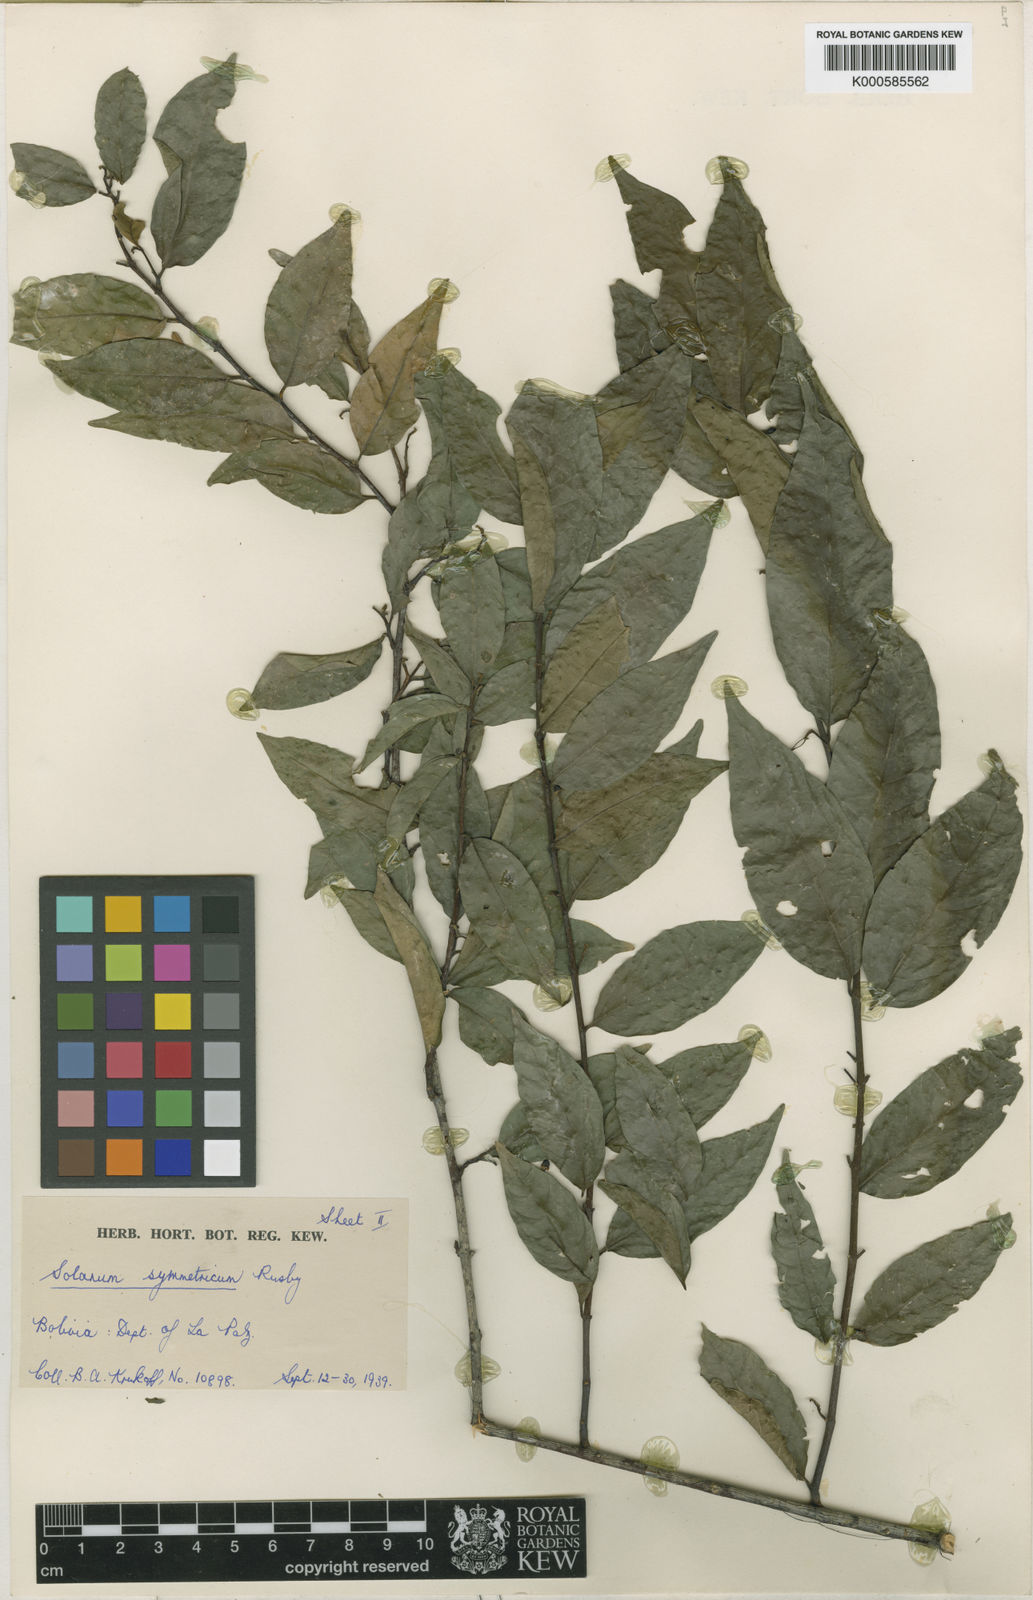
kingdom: Plantae
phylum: Tracheophyta
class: Magnoliopsida
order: Solanales
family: Solanaceae
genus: Solanum
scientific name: Solanum mapiricum
